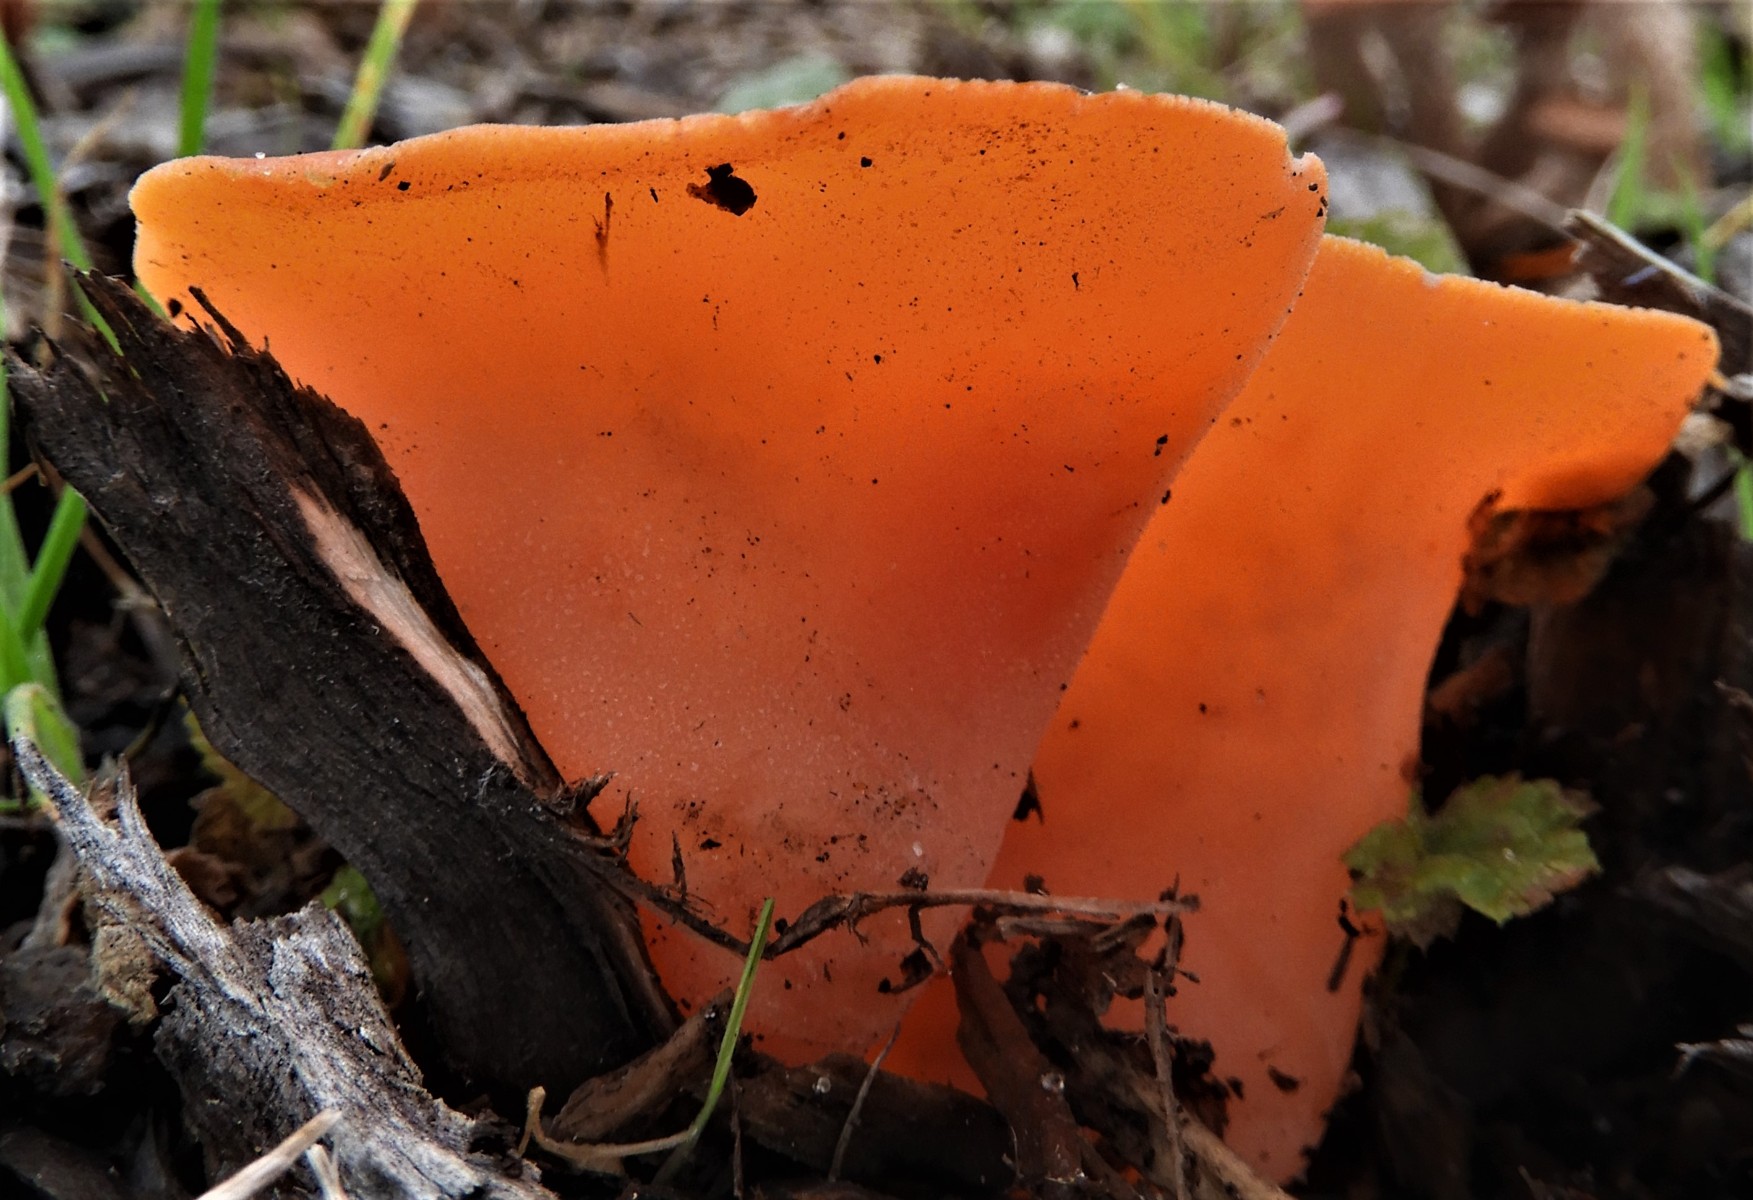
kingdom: Fungi
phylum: Ascomycota
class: Pezizomycetes
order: Pezizales
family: Pyronemataceae
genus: Aleuria
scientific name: Aleuria aurantia
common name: almindelig orangebæger
